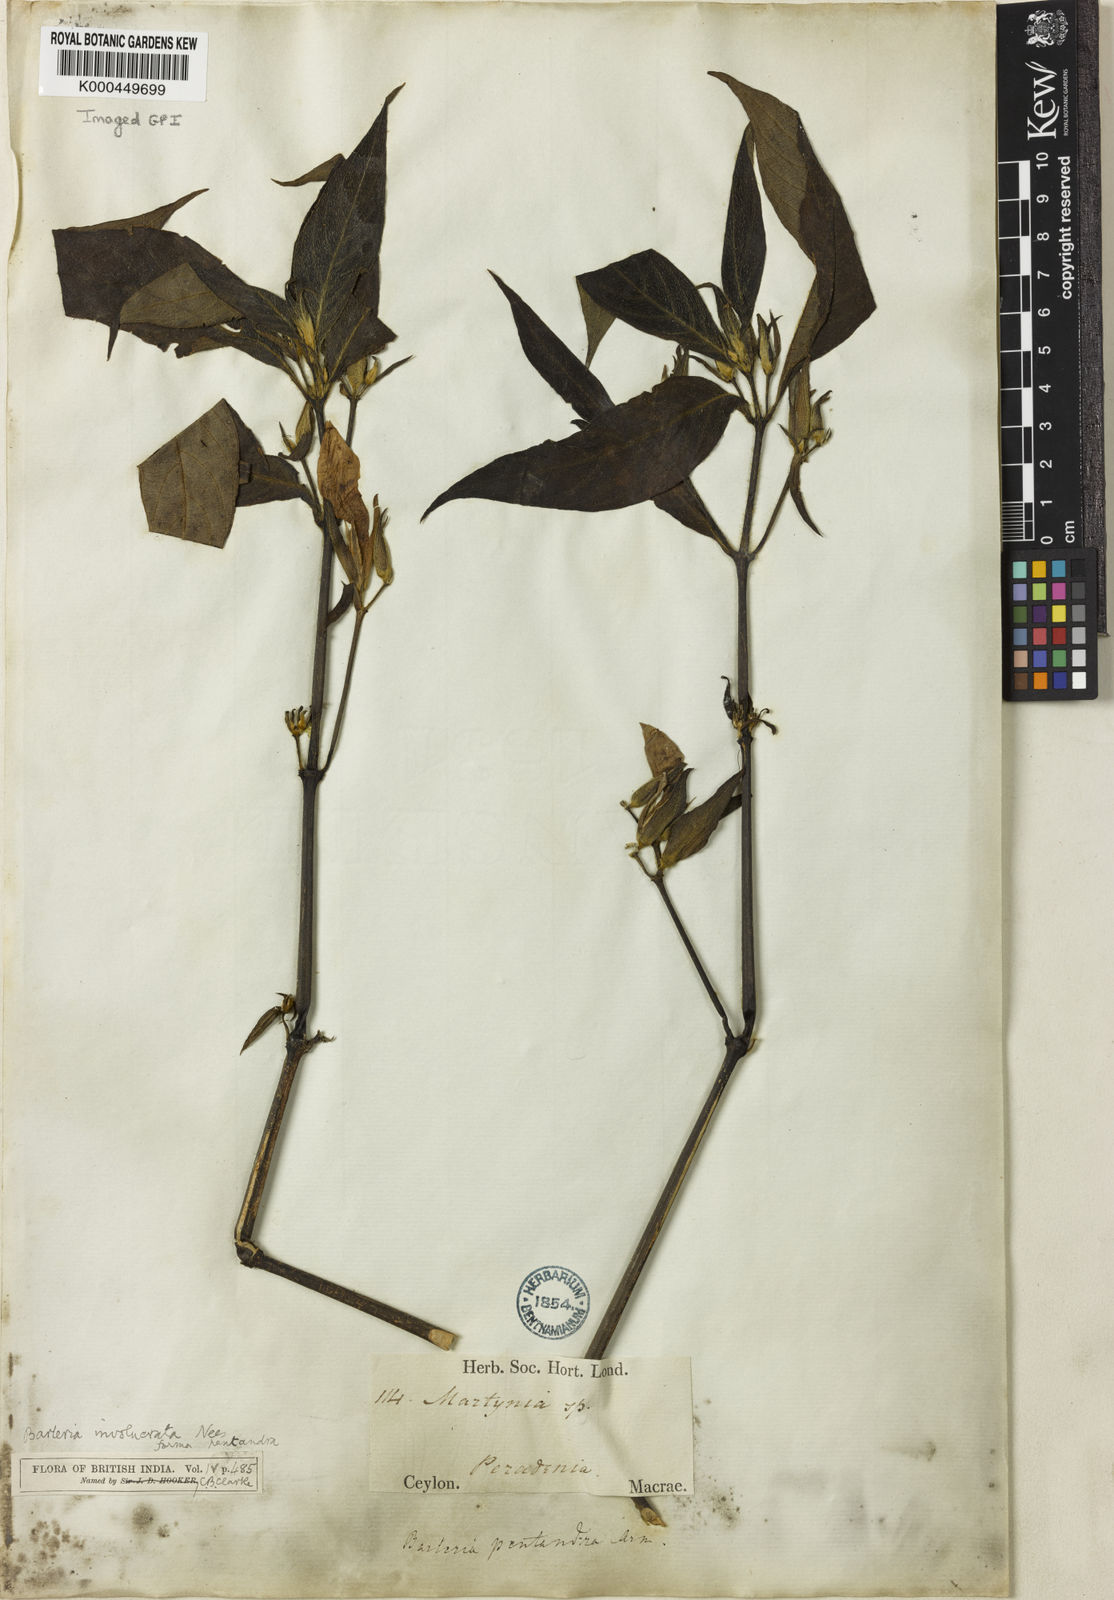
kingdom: Plantae
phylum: Tracheophyta
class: Magnoliopsida
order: Lamiales
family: Acanthaceae
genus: Barleria
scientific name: Barleria involucrata
